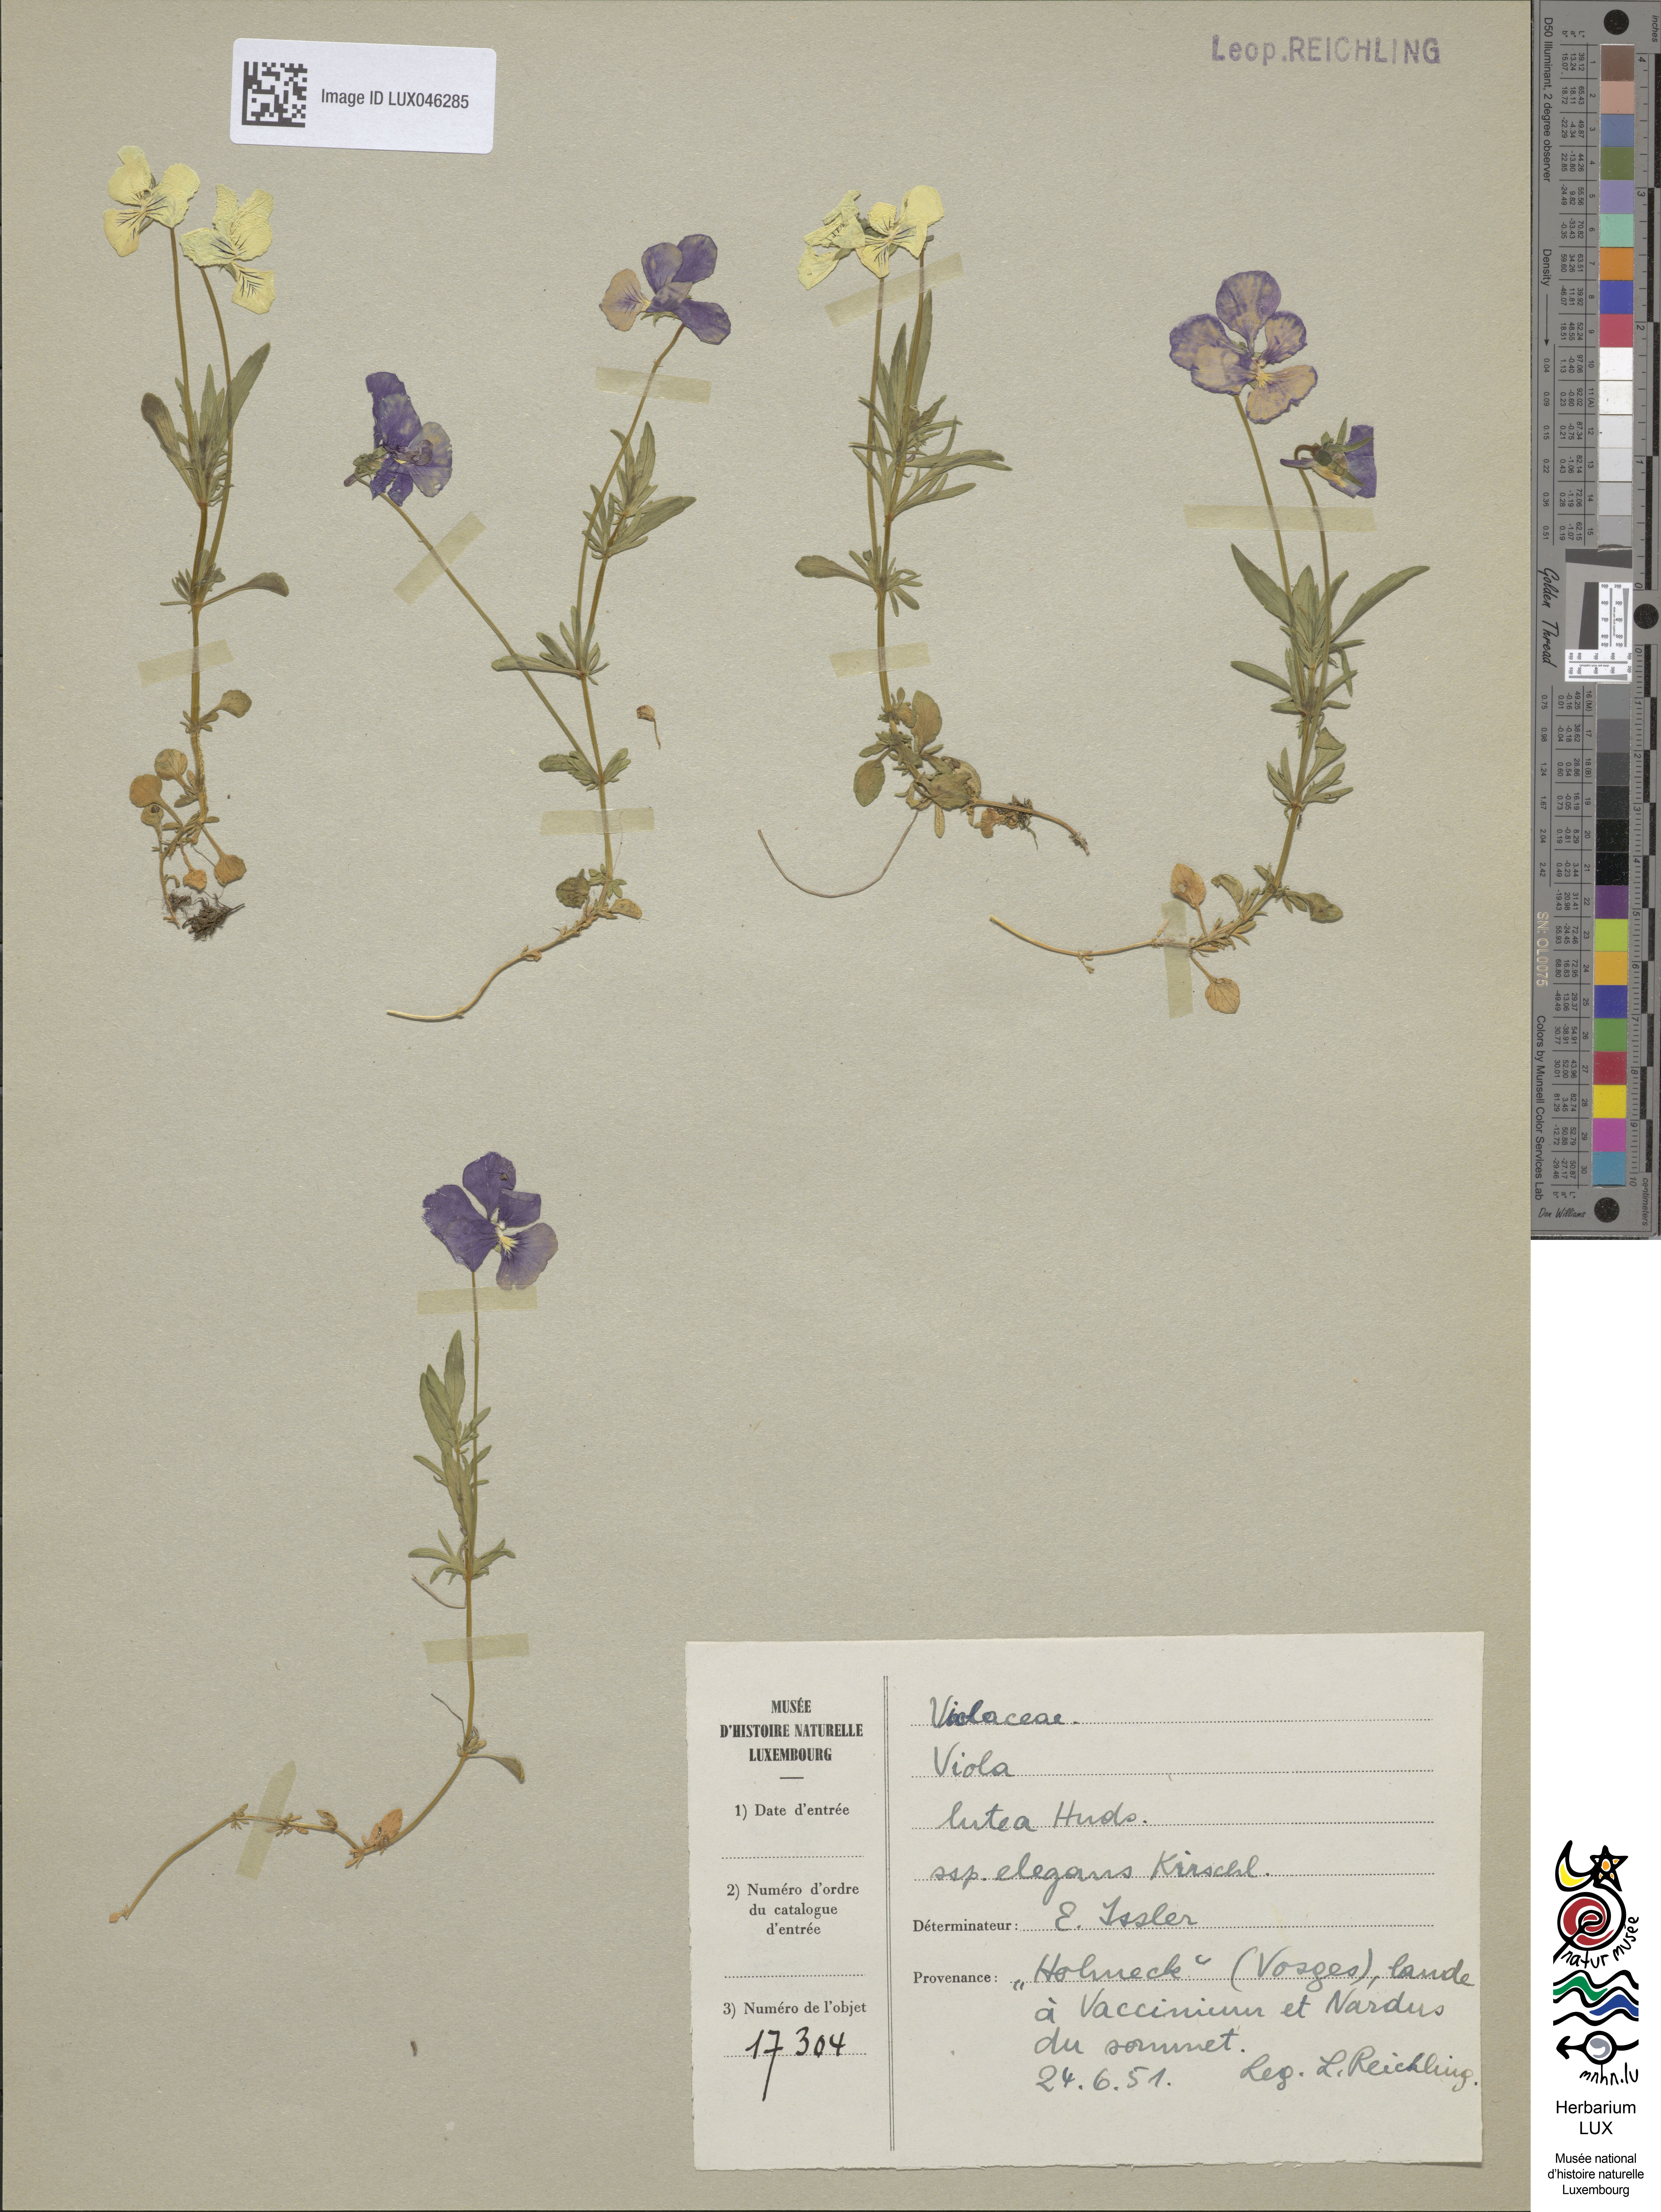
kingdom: Plantae
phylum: Tracheophyta
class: Magnoliopsida
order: Malpighiales
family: Violaceae
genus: Viola
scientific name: Viola lutea
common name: Mountain pansy
